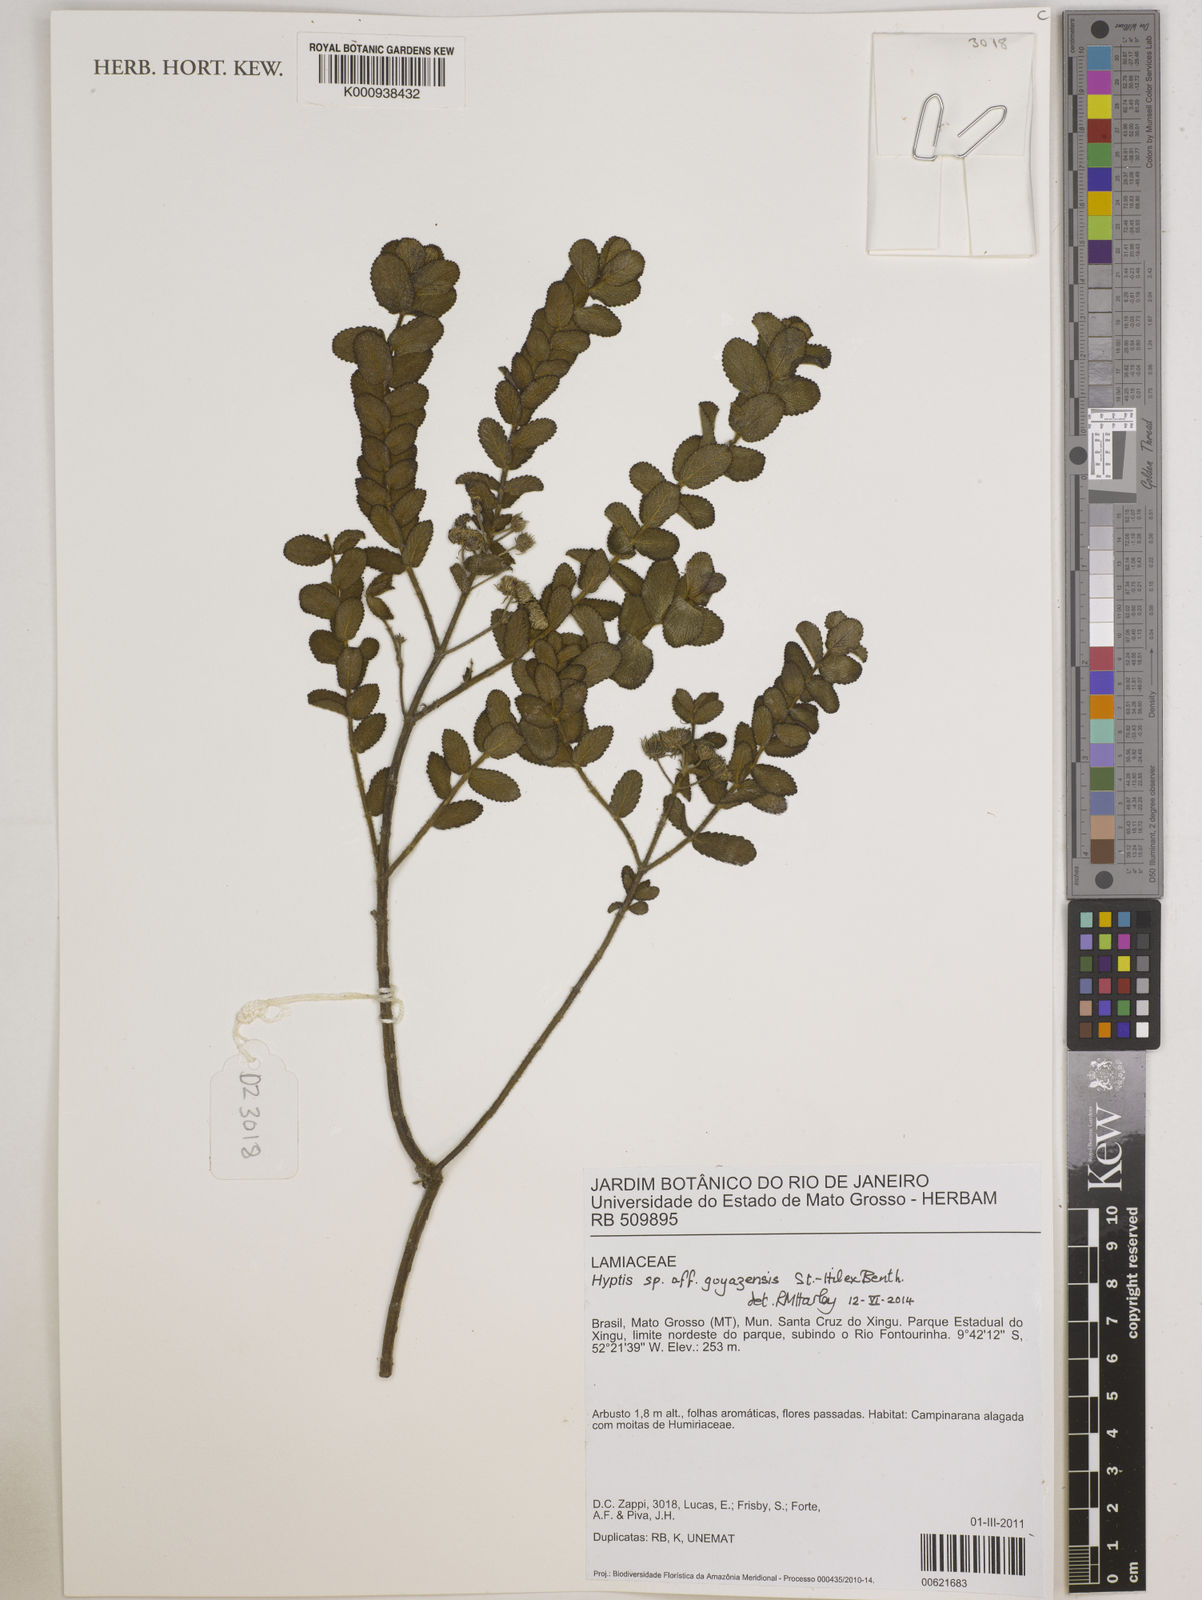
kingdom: Plantae
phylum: Tracheophyta
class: Magnoliopsida
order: Lamiales
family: Lamiaceae
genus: Hyptis
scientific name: Hyptis
